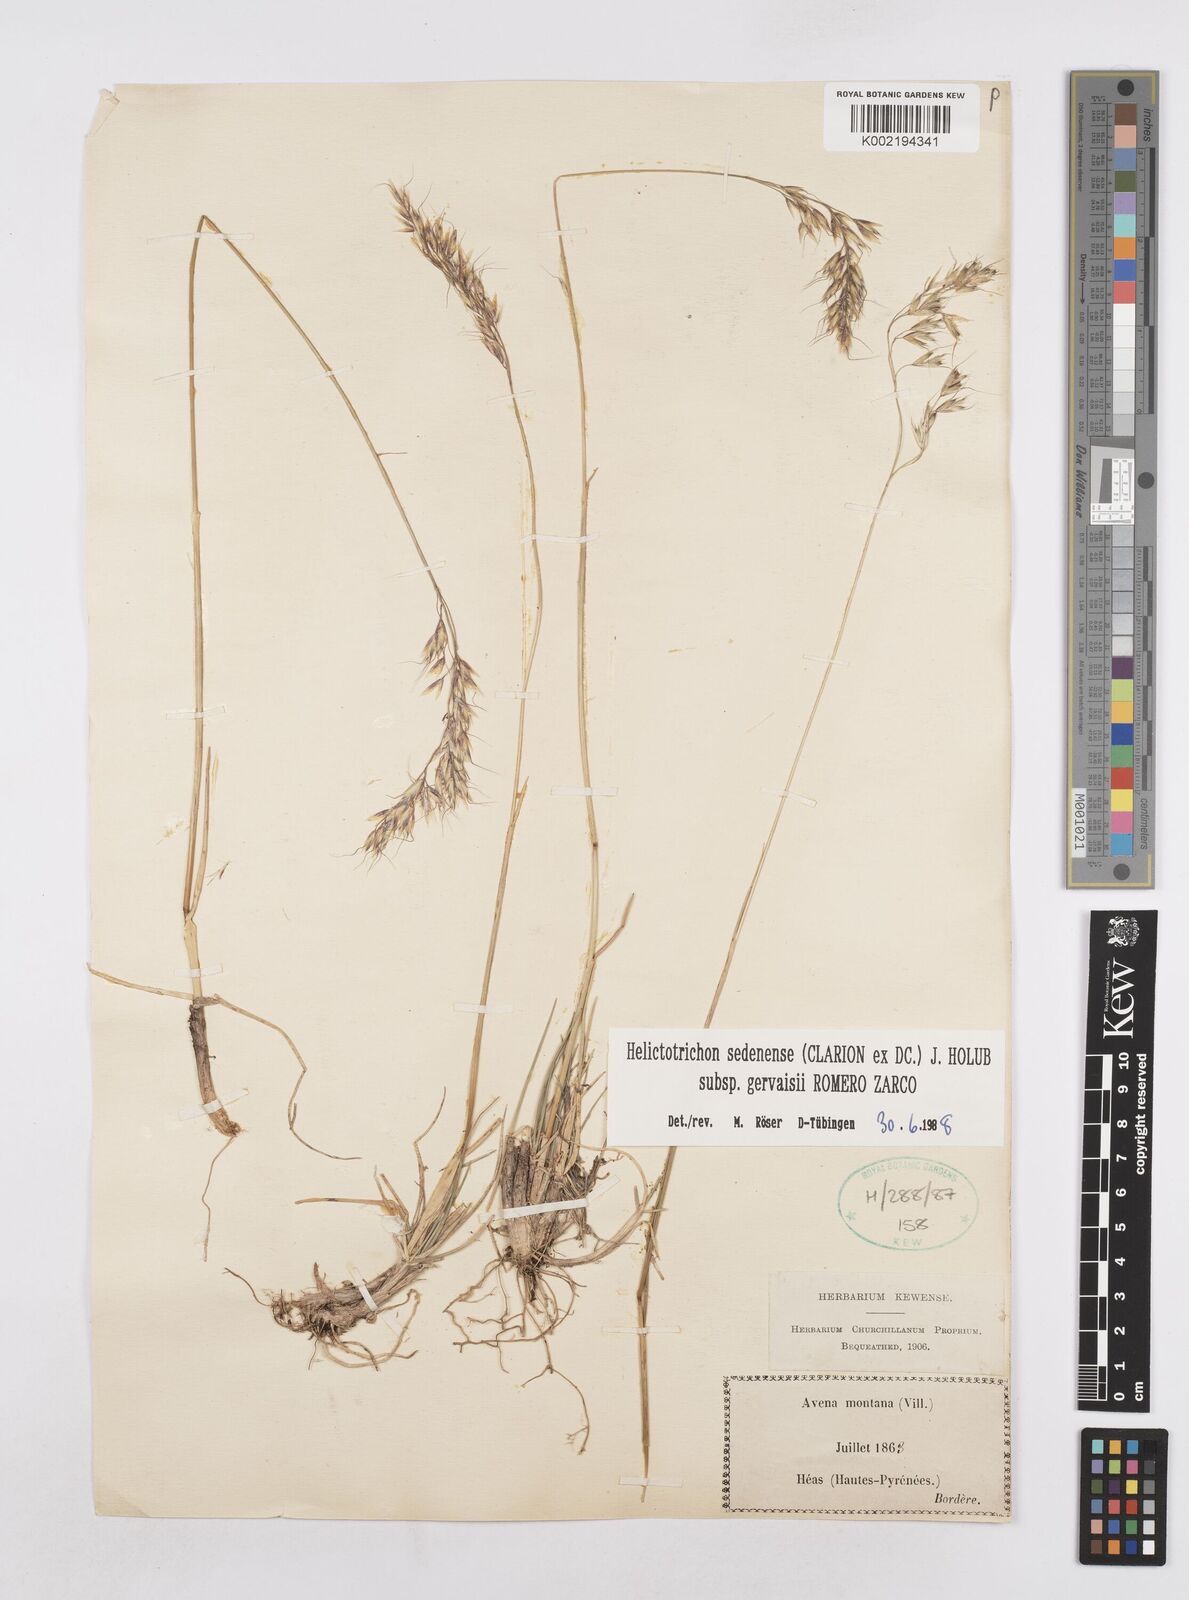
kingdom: Plantae
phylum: Tracheophyta
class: Liliopsida
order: Poales
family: Poaceae
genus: Helictotrichon
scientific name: Helictotrichon sedenense
